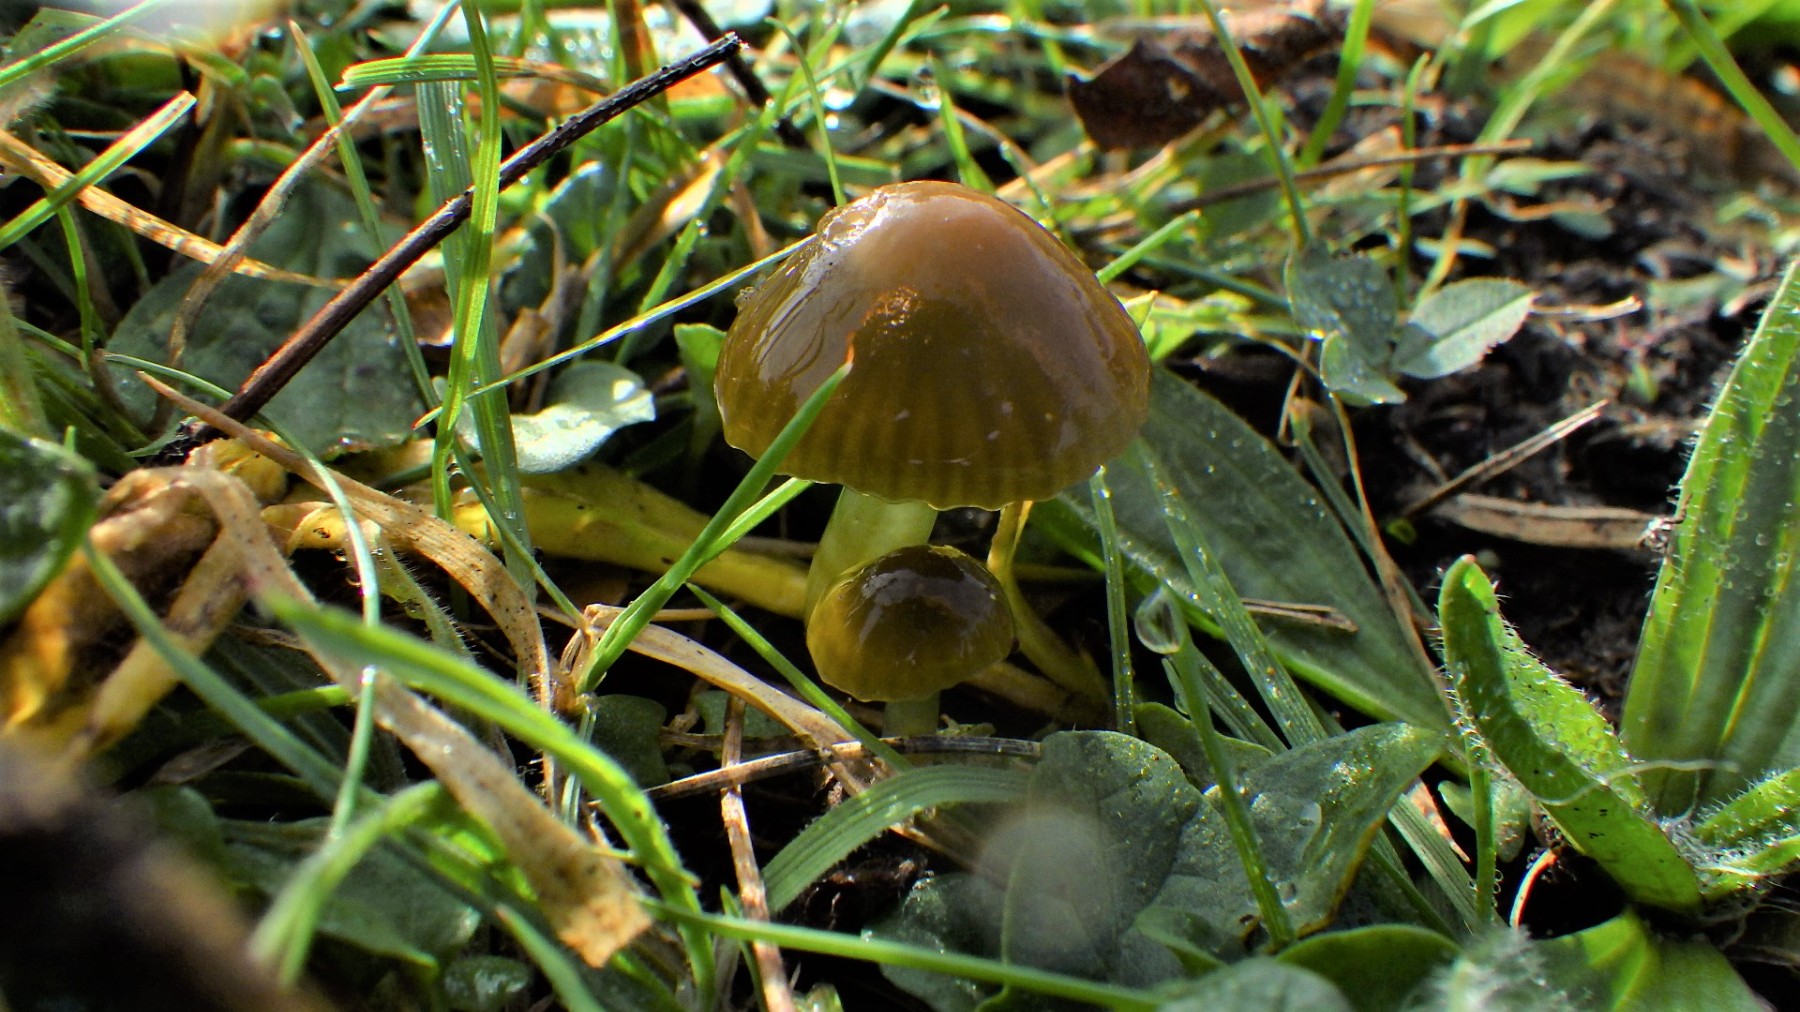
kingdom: Fungi
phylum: Basidiomycota
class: Agaricomycetes
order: Agaricales
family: Hygrophoraceae
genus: Gliophorus
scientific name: Gliophorus psittacinus
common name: papegøje-vokshat
